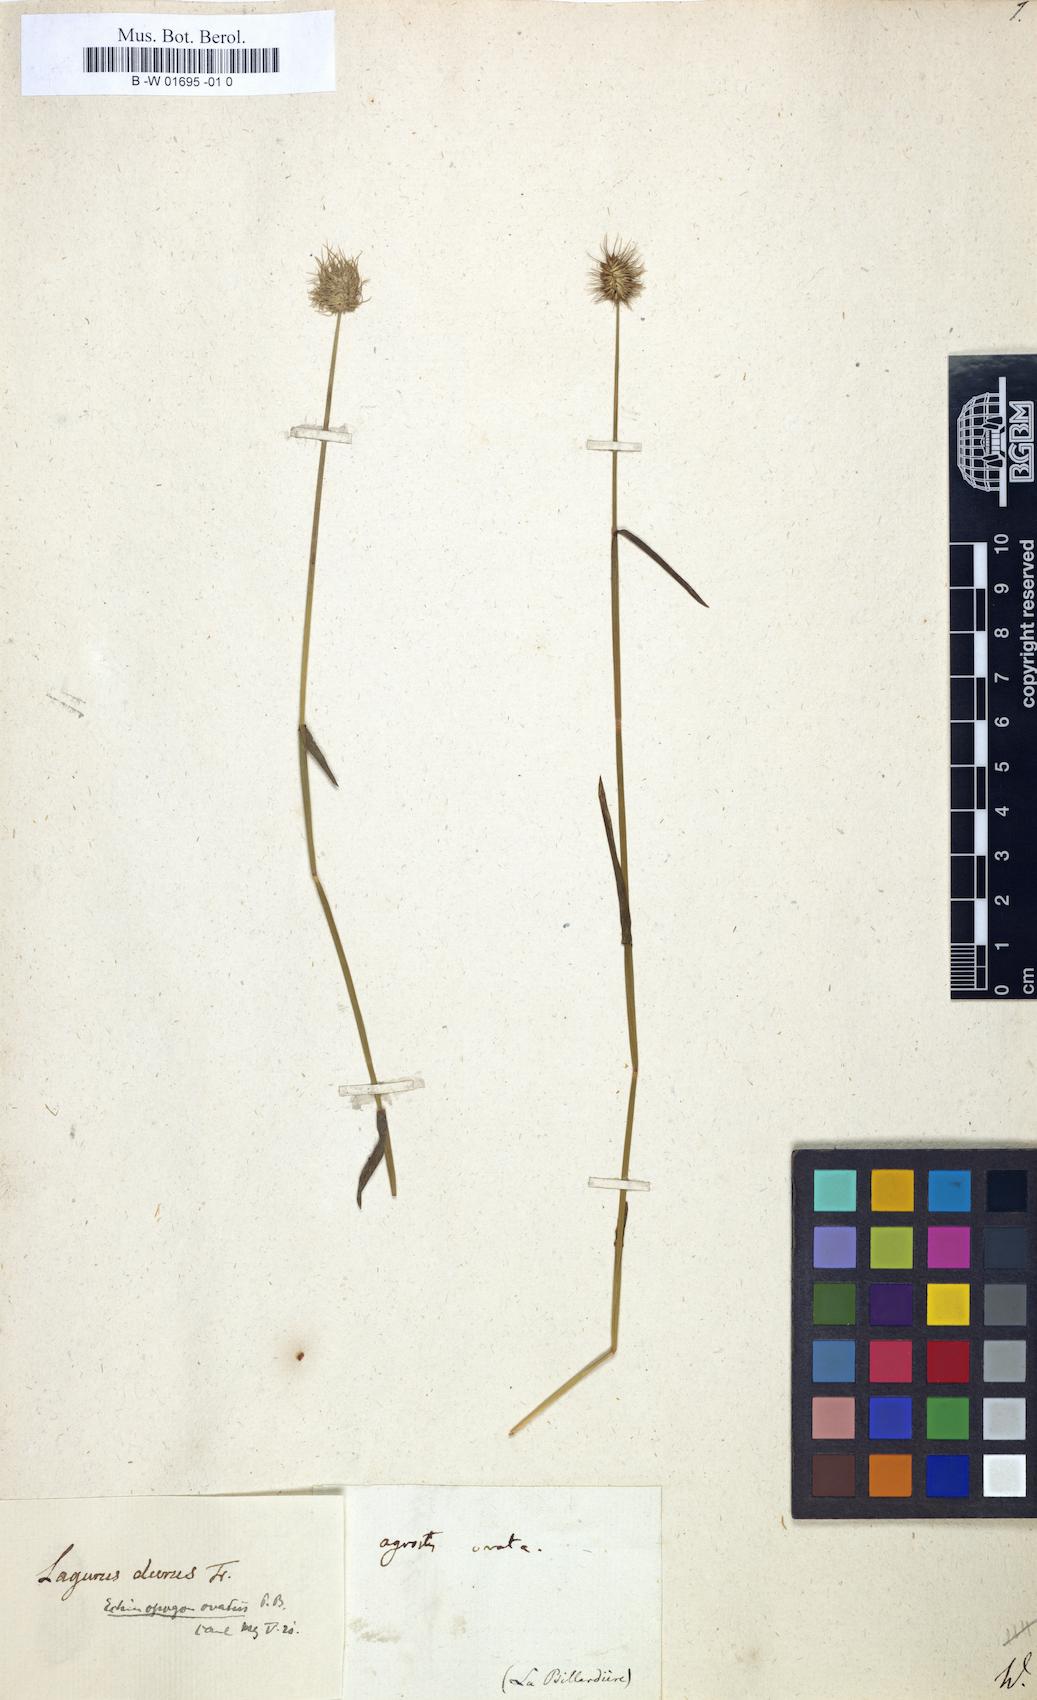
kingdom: Plantae
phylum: Tracheophyta
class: Liliopsida
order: Poales
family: Poaceae
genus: Echinopogon
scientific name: Echinopogon ovatus
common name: Hedgehog-grass
